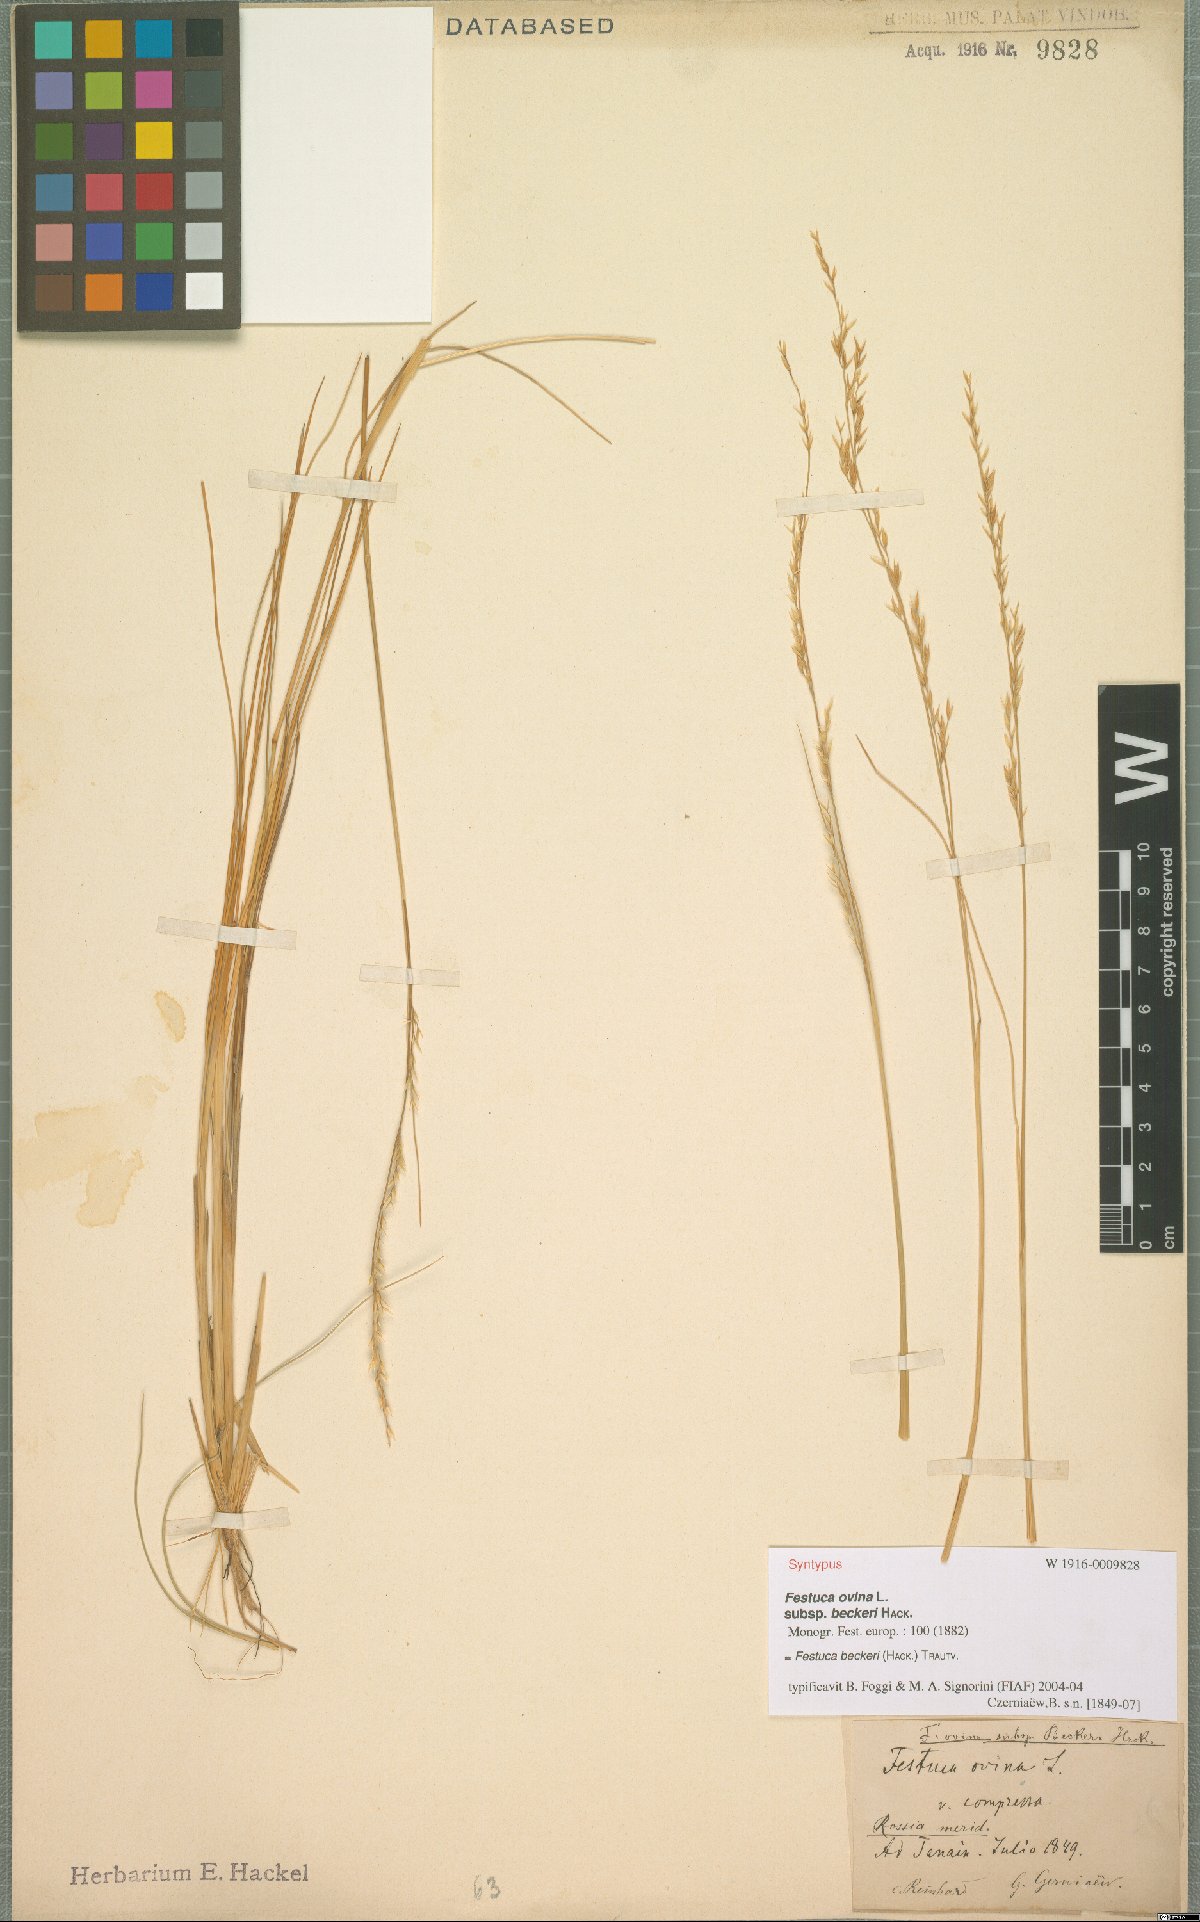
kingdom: Plantae
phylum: Tracheophyta
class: Liliopsida
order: Poales
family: Poaceae
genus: Festuca
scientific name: Festuca beckeri
